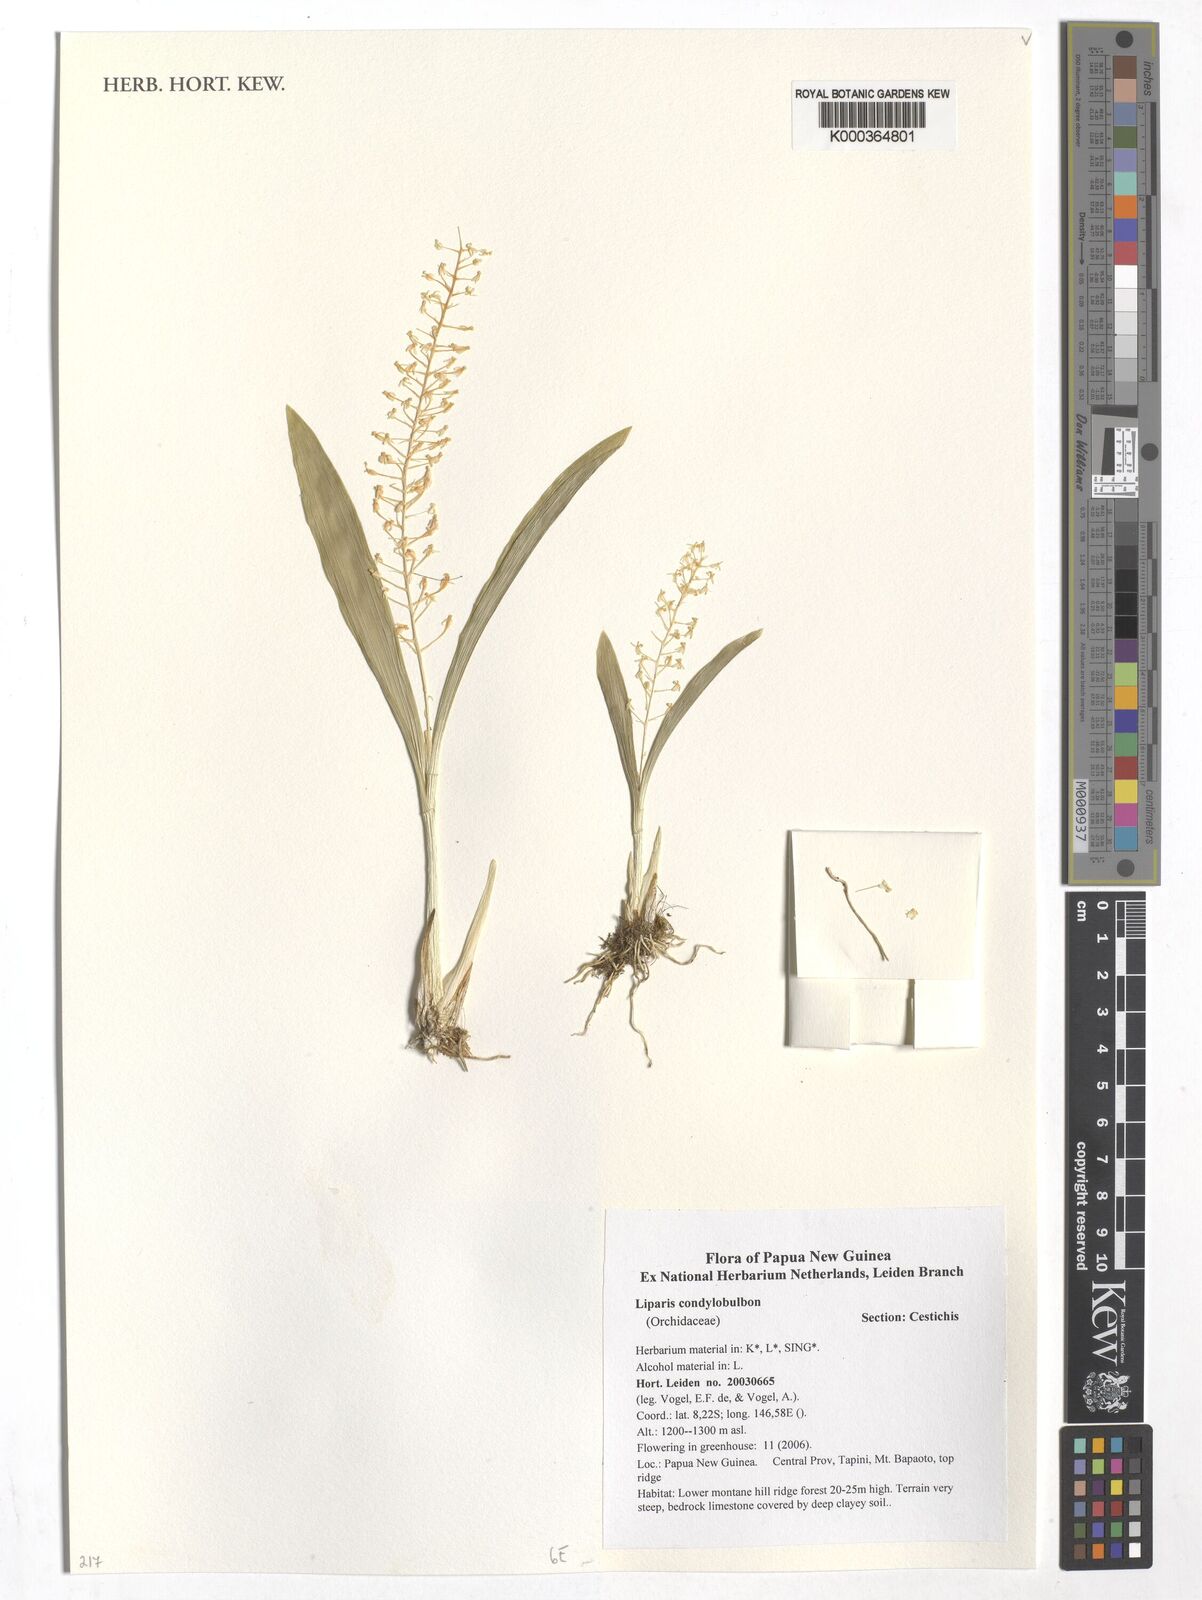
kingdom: Plantae
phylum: Tracheophyta
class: Liliopsida
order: Asparagales
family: Orchidaceae
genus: Liparis
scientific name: Liparis condylobulbon
